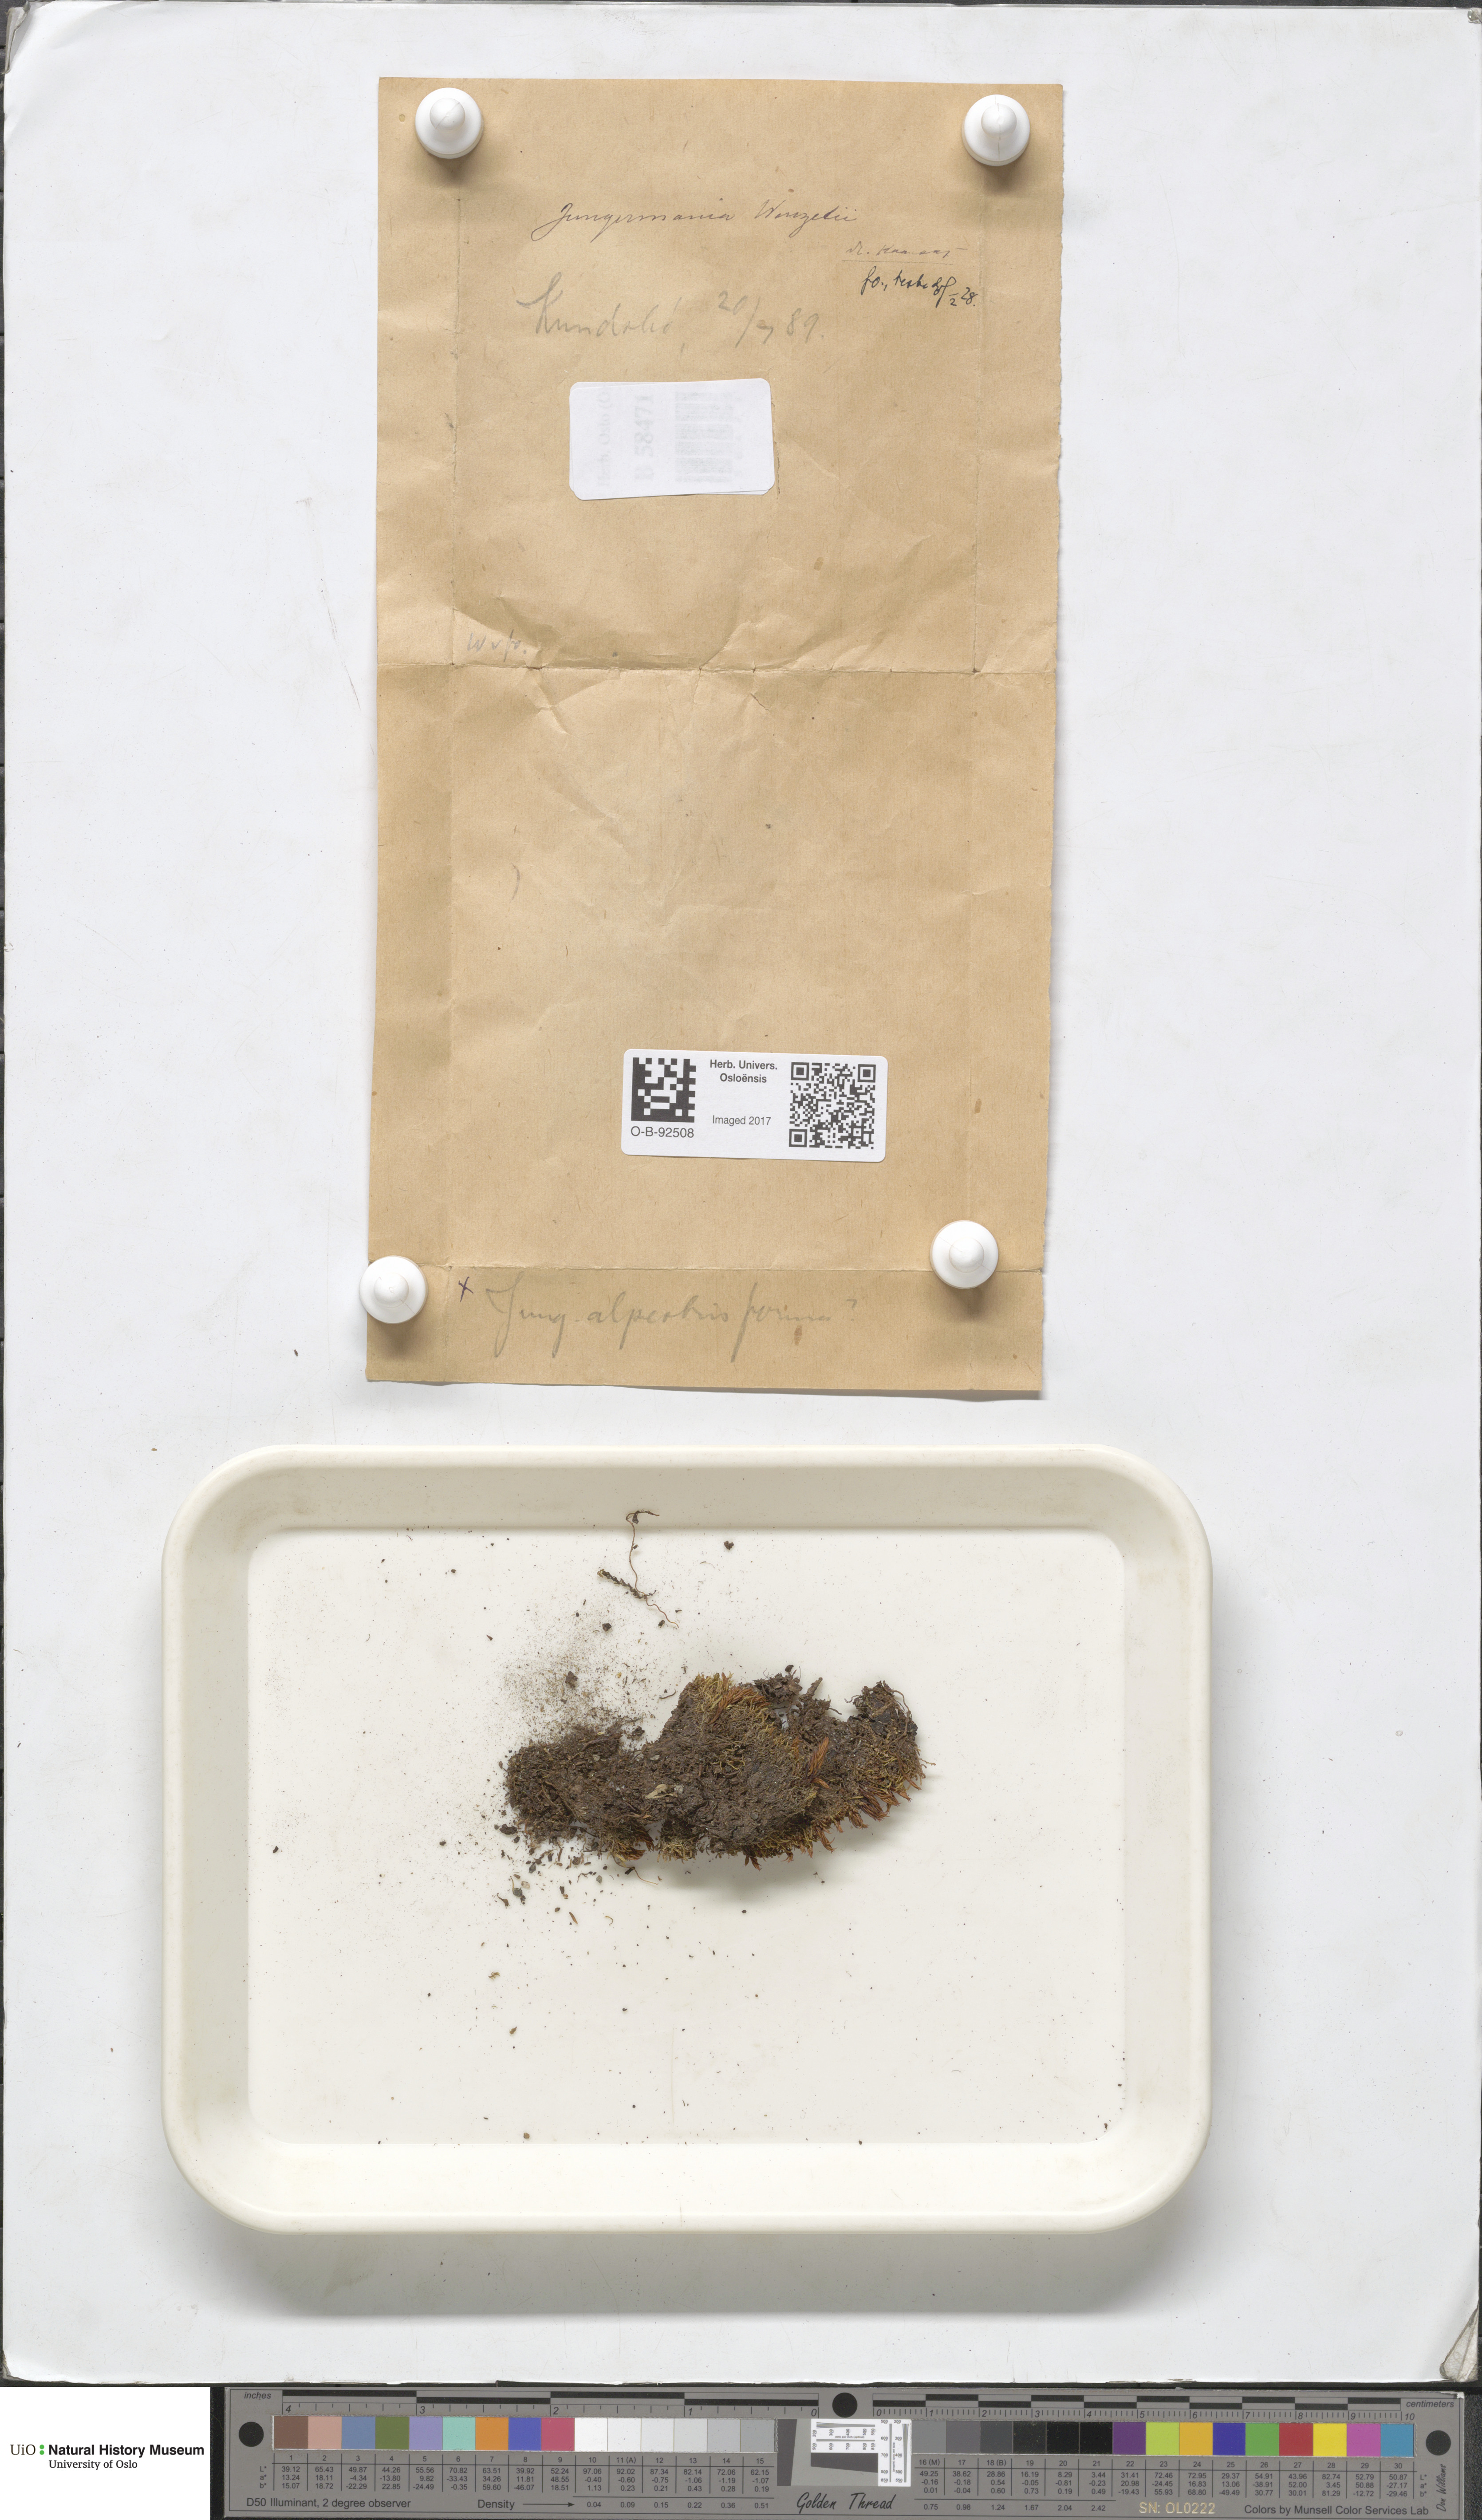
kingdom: Plantae
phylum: Marchantiophyta
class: Jungermanniopsida
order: Jungermanniales
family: Lophoziaceae
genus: Lophozia
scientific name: Lophozia wenzelii
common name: Wenzel s notchwort
